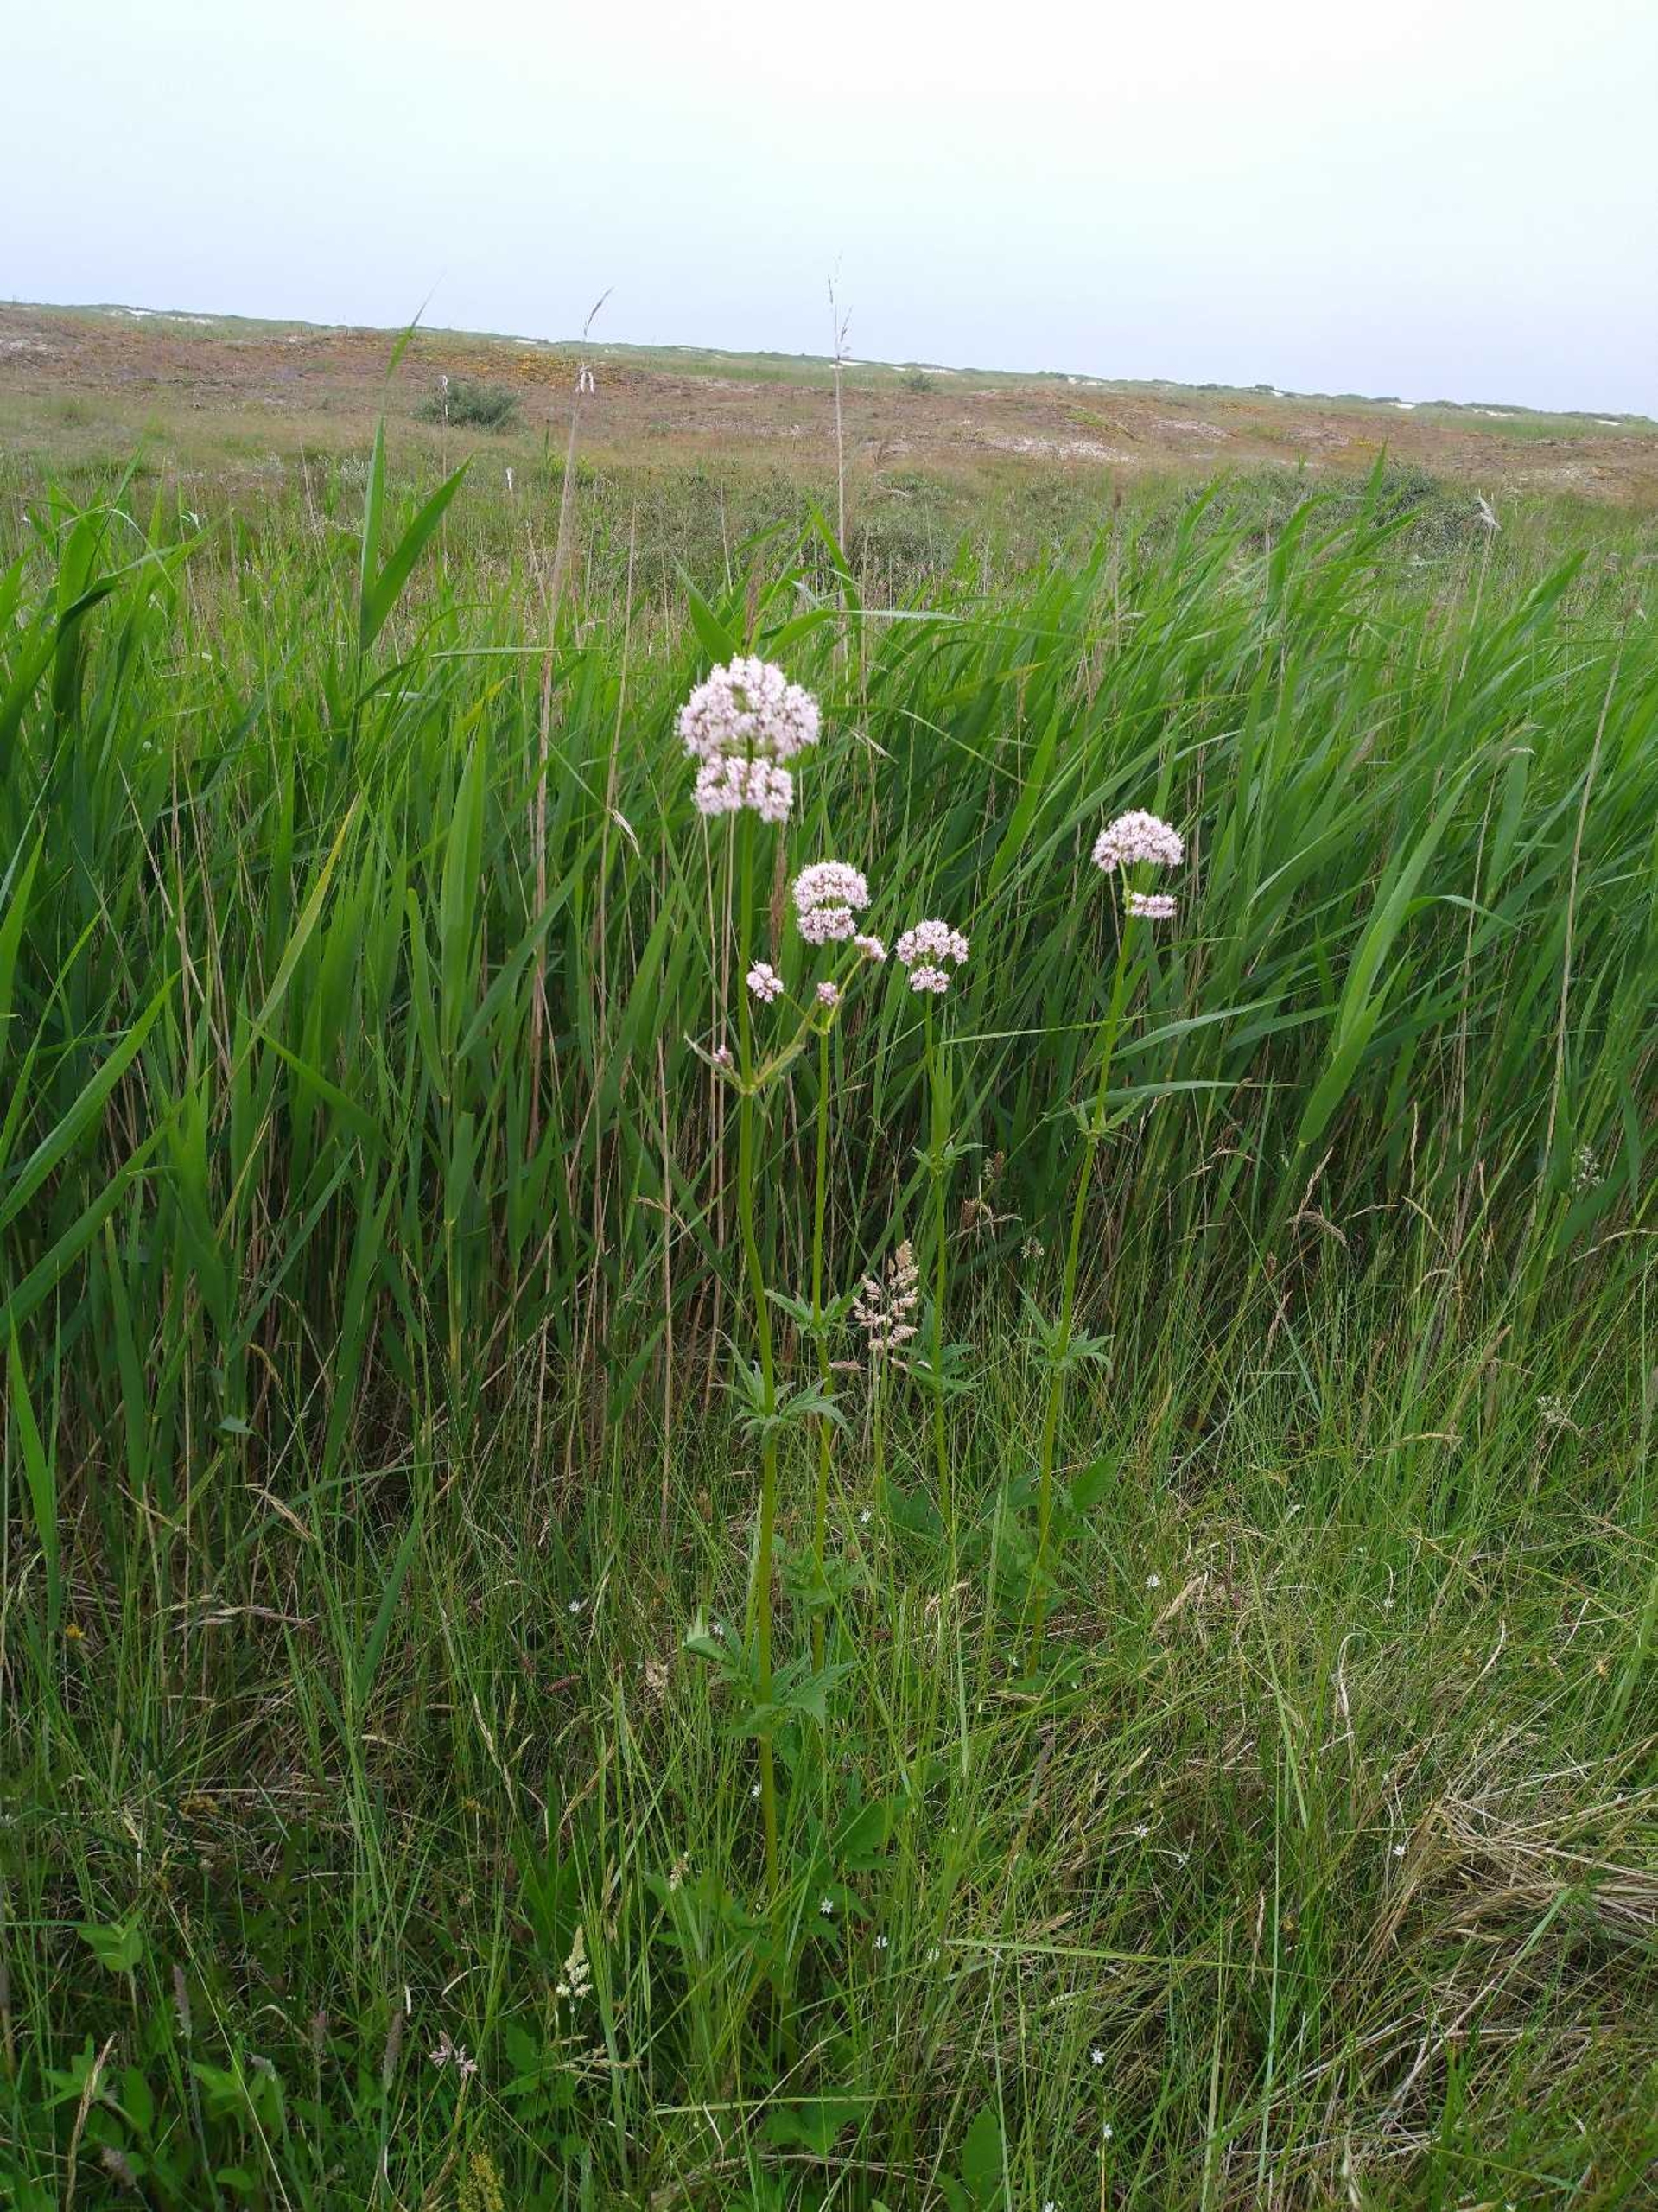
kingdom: Plantae
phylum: Tracheophyta
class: Magnoliopsida
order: Dipsacales
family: Caprifoliaceae
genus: Valeriana
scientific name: Valeriana sambucifolia
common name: Hyldebladet baldrian
